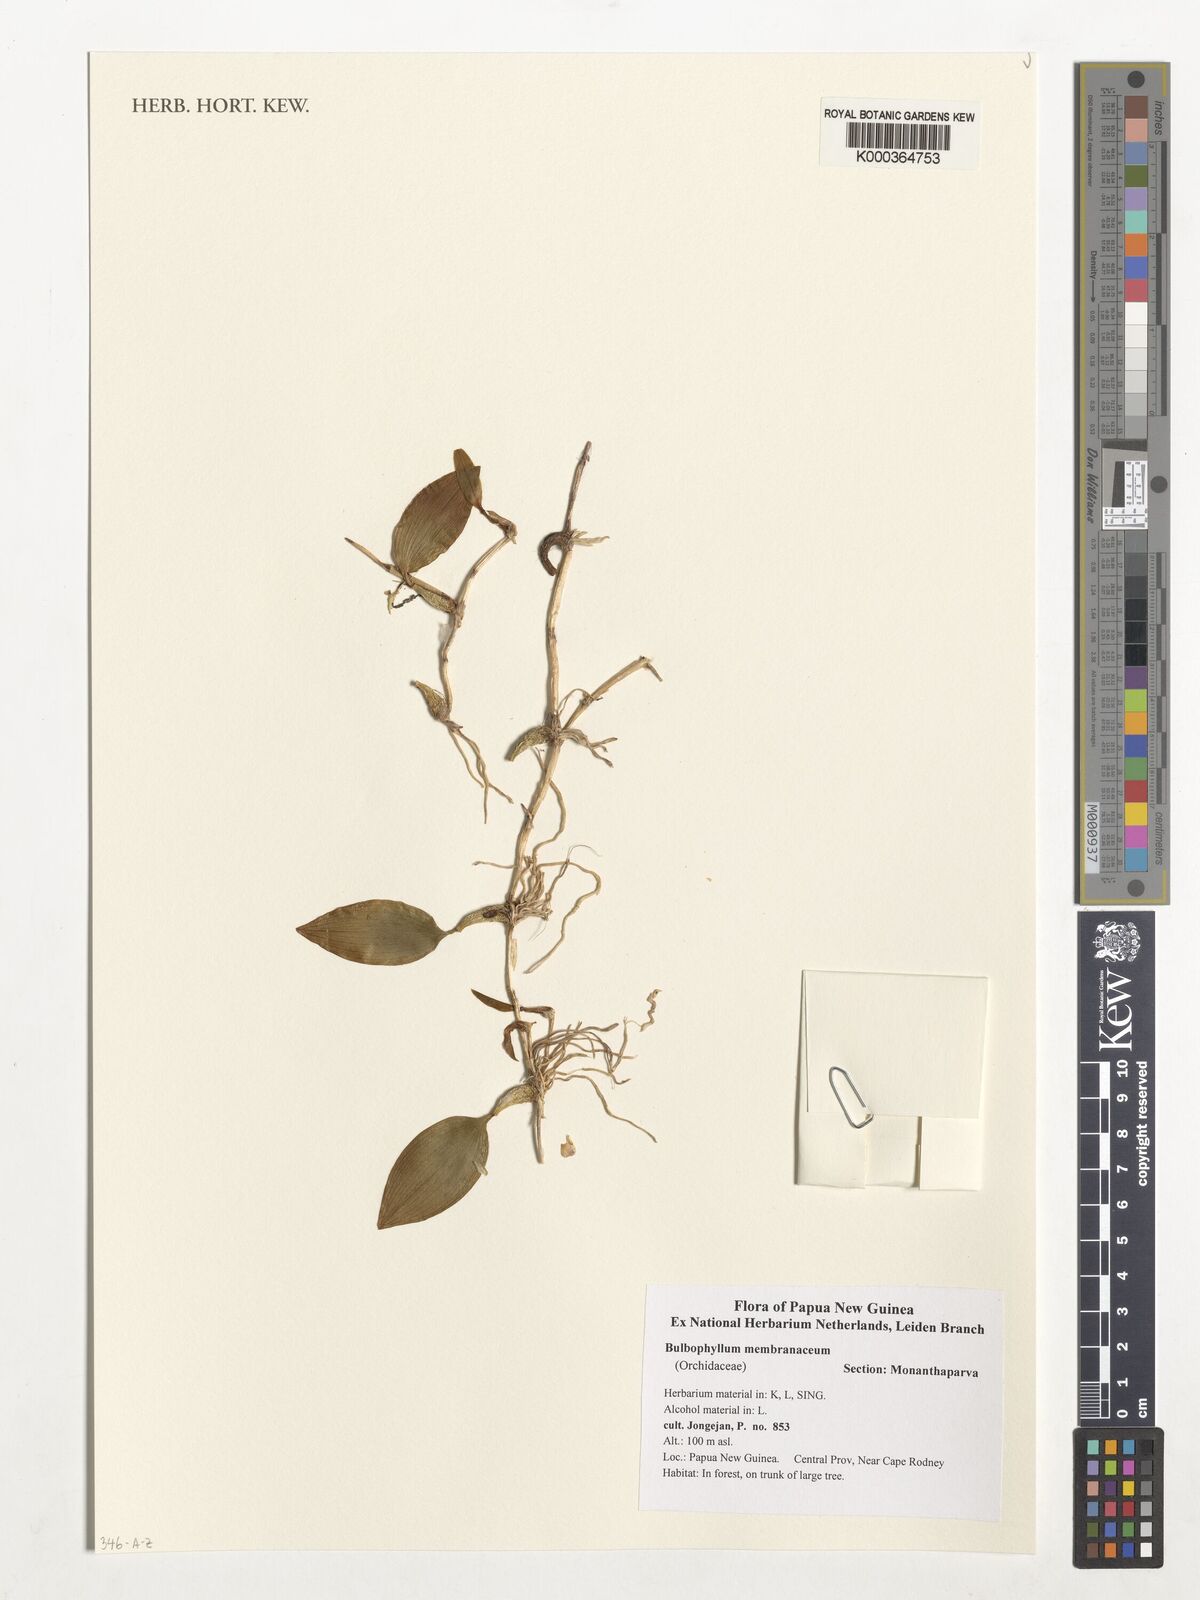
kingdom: Plantae
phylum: Tracheophyta
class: Liliopsida
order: Asparagales
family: Orchidaceae
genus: Bulbophyllum
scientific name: Bulbophyllum membranaceum
